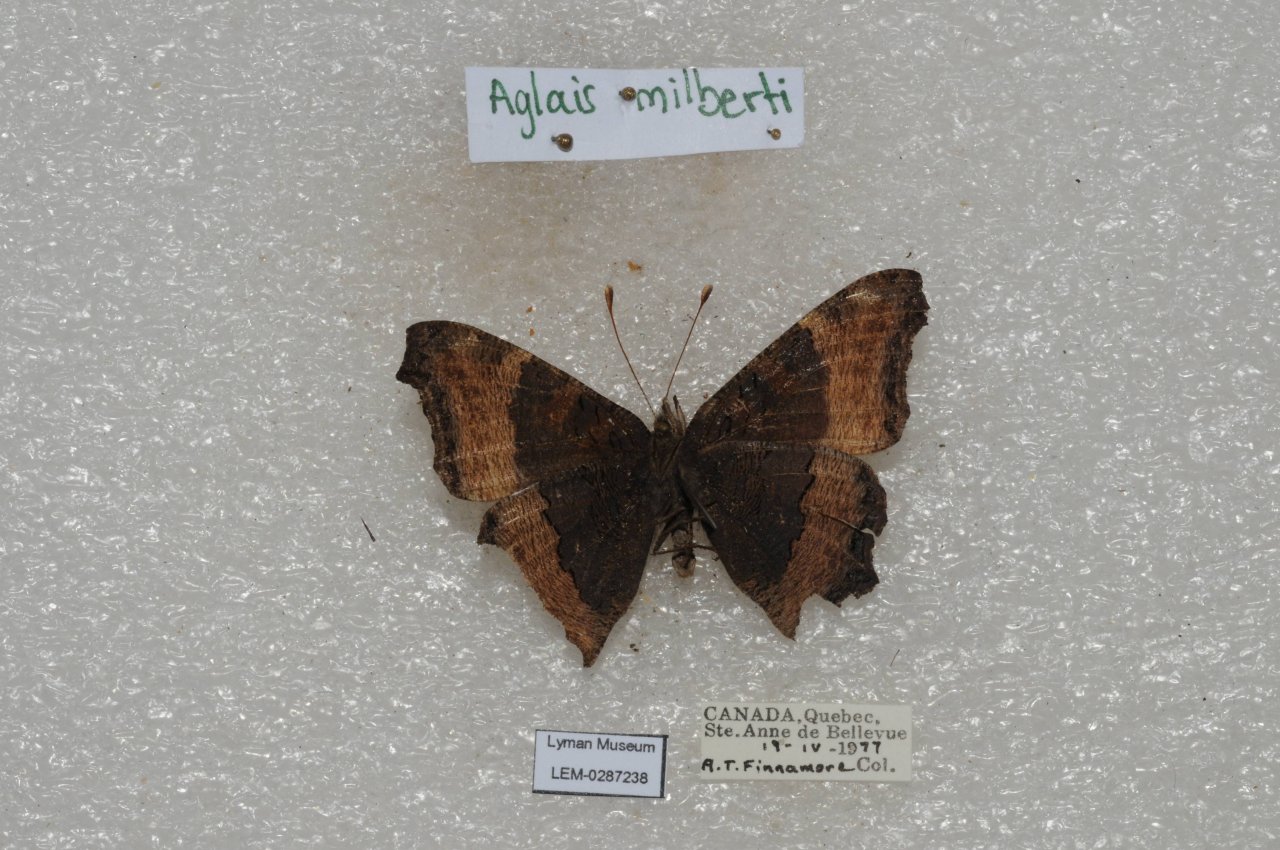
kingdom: Animalia
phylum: Arthropoda
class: Insecta
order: Lepidoptera
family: Nymphalidae
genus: Aglais
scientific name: Aglais milberti
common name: Milbert's Tortoiseshell
